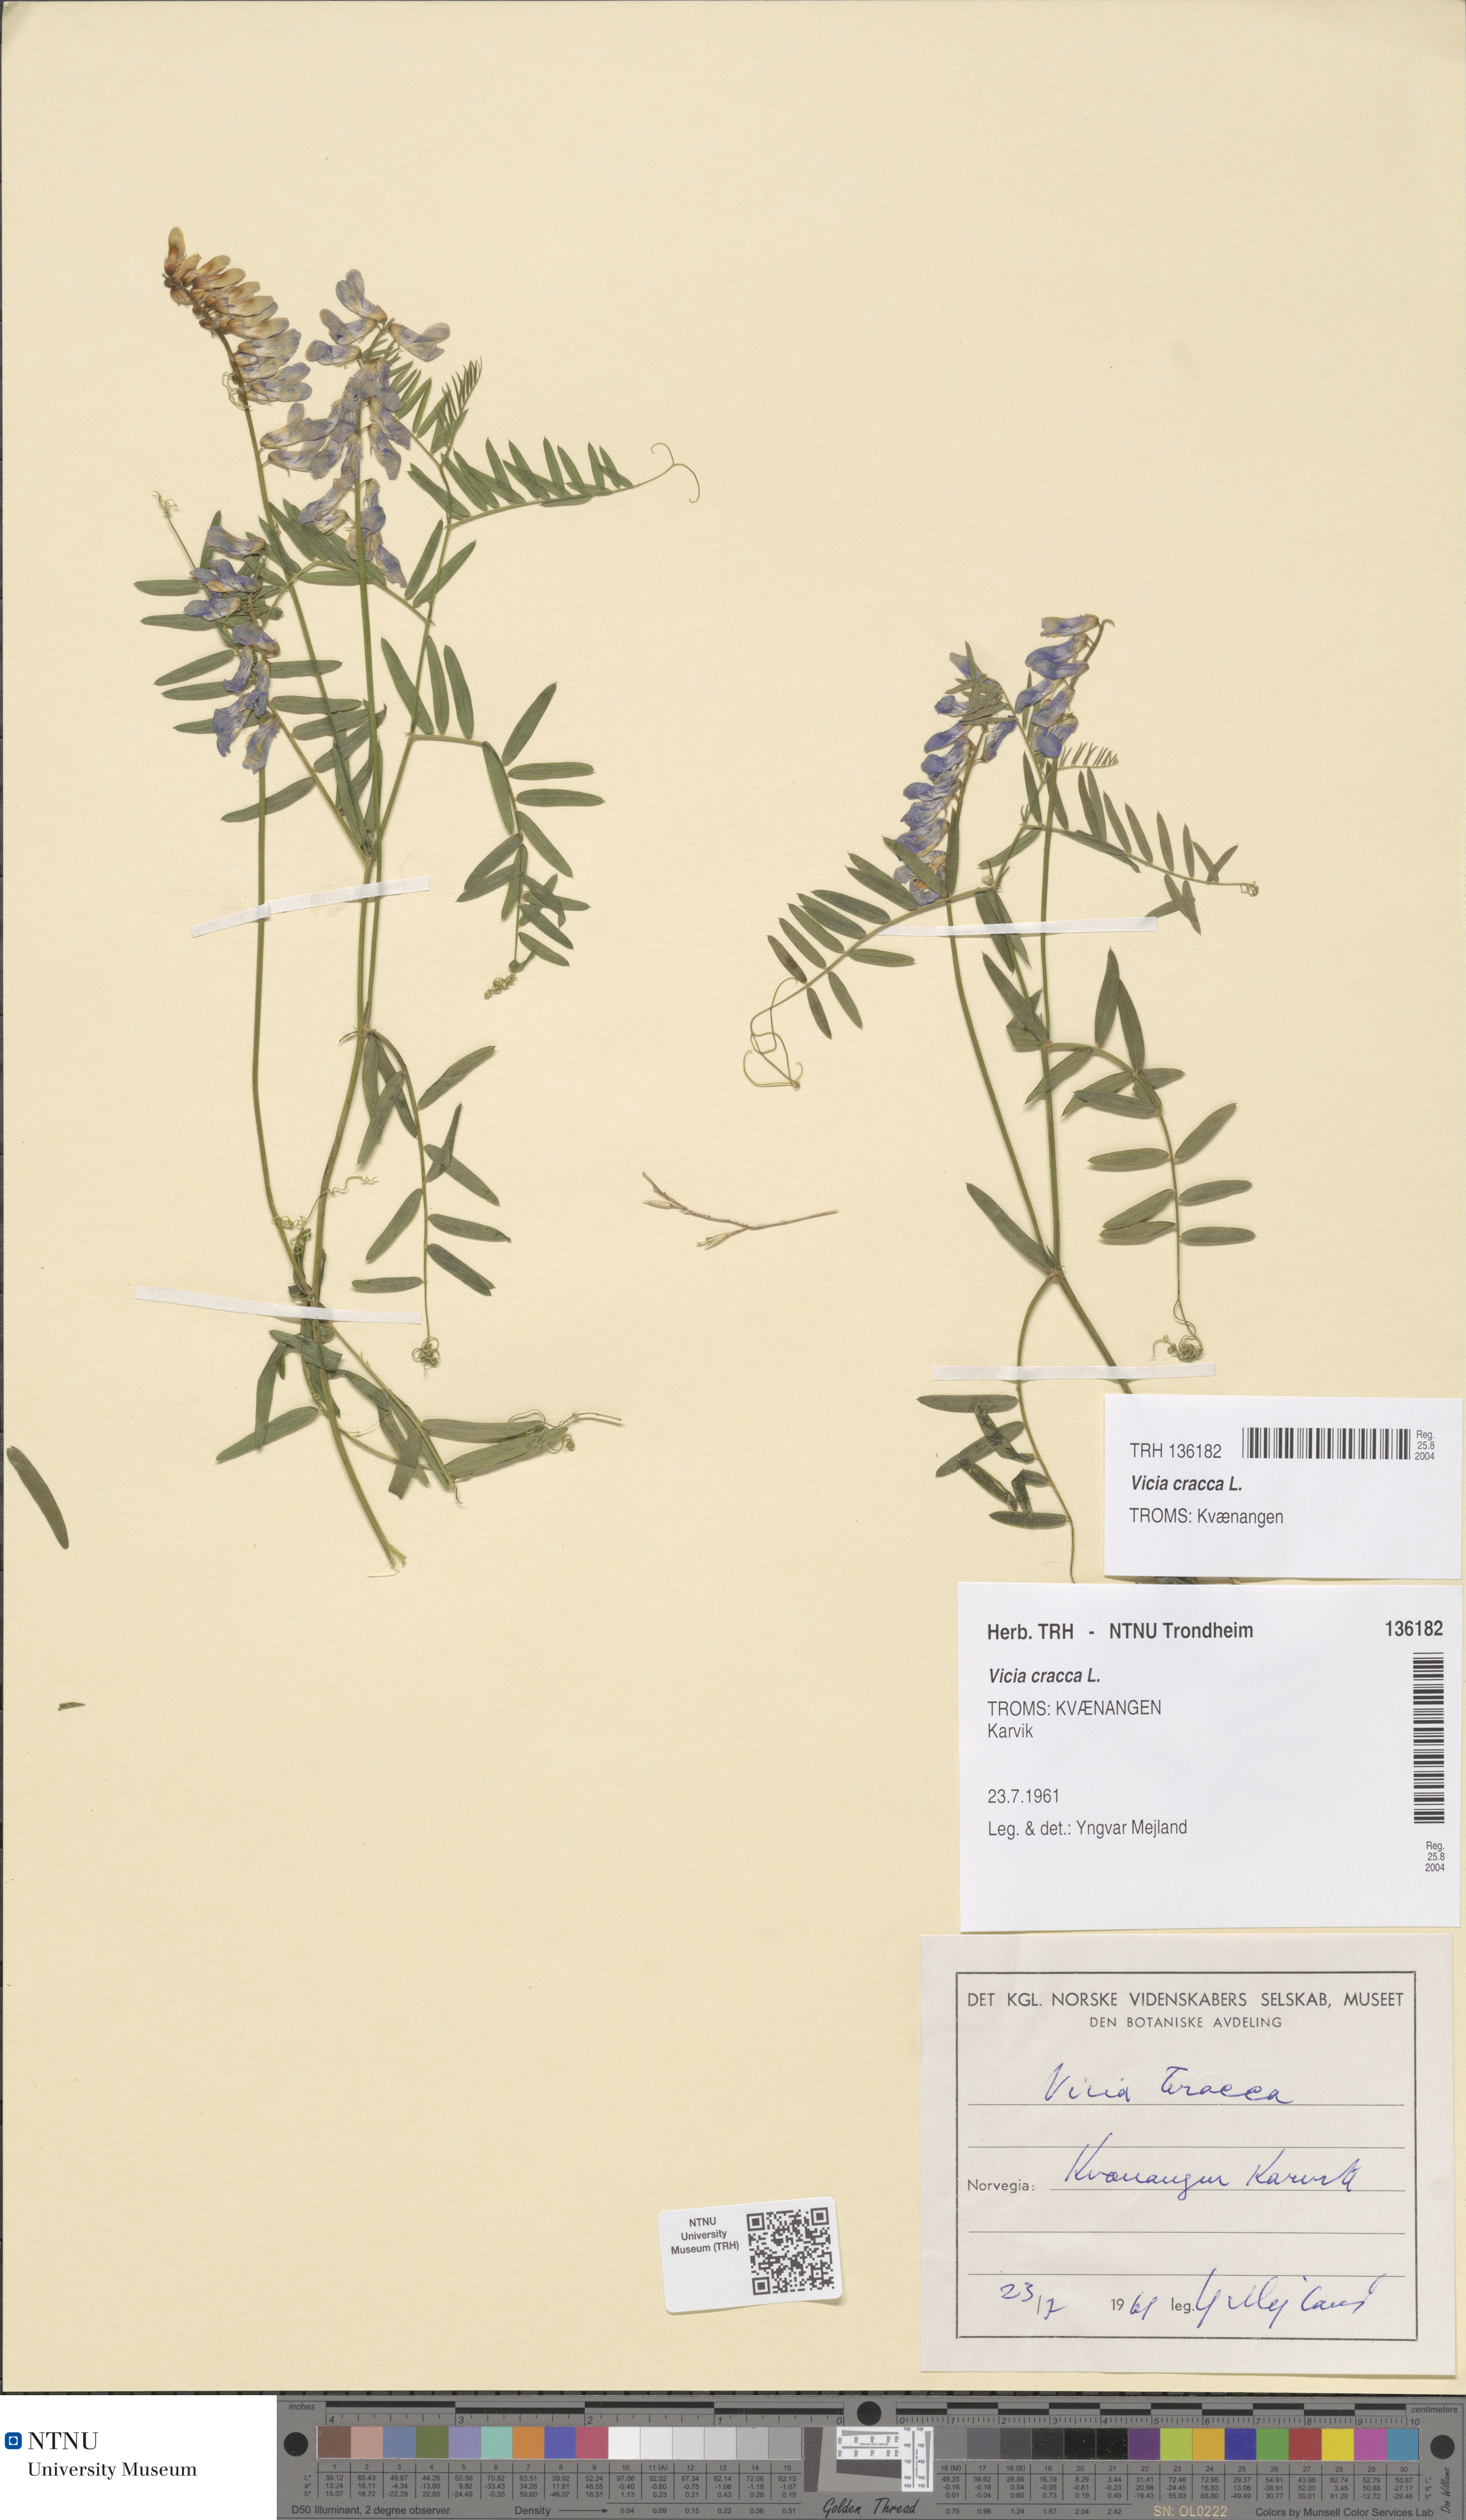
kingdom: Plantae
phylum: Tracheophyta
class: Magnoliopsida
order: Fabales
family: Fabaceae
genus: Vicia
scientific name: Vicia cracca
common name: Bird vetch
